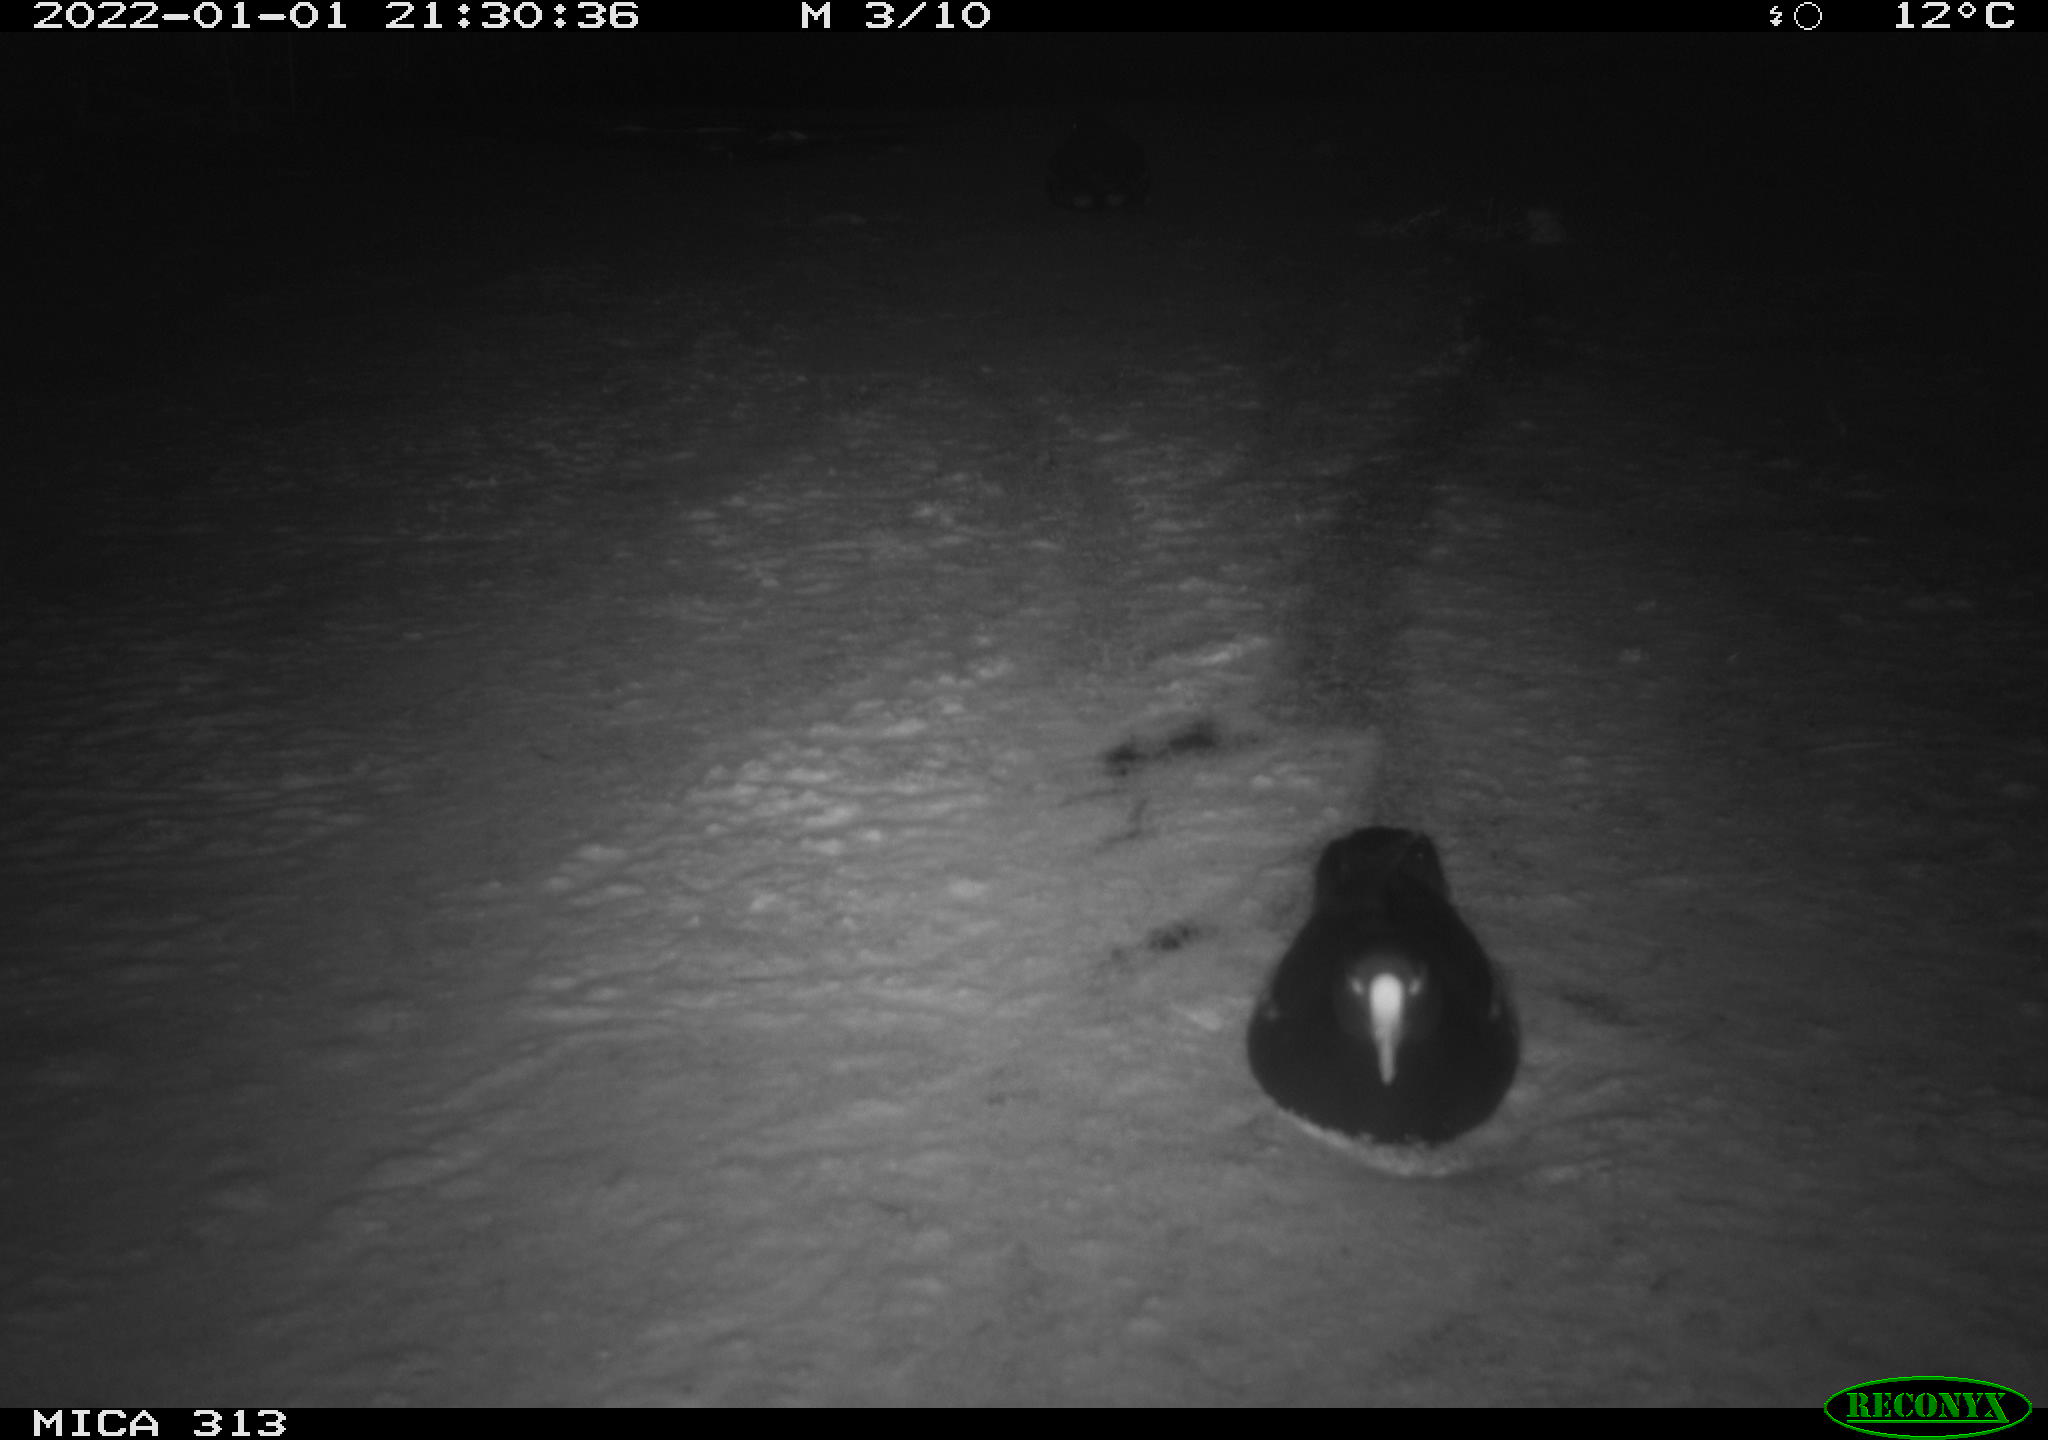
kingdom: Animalia
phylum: Chordata
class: Aves
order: Gruiformes
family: Rallidae
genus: Gallinula
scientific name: Gallinula chloropus
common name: Common moorhen
